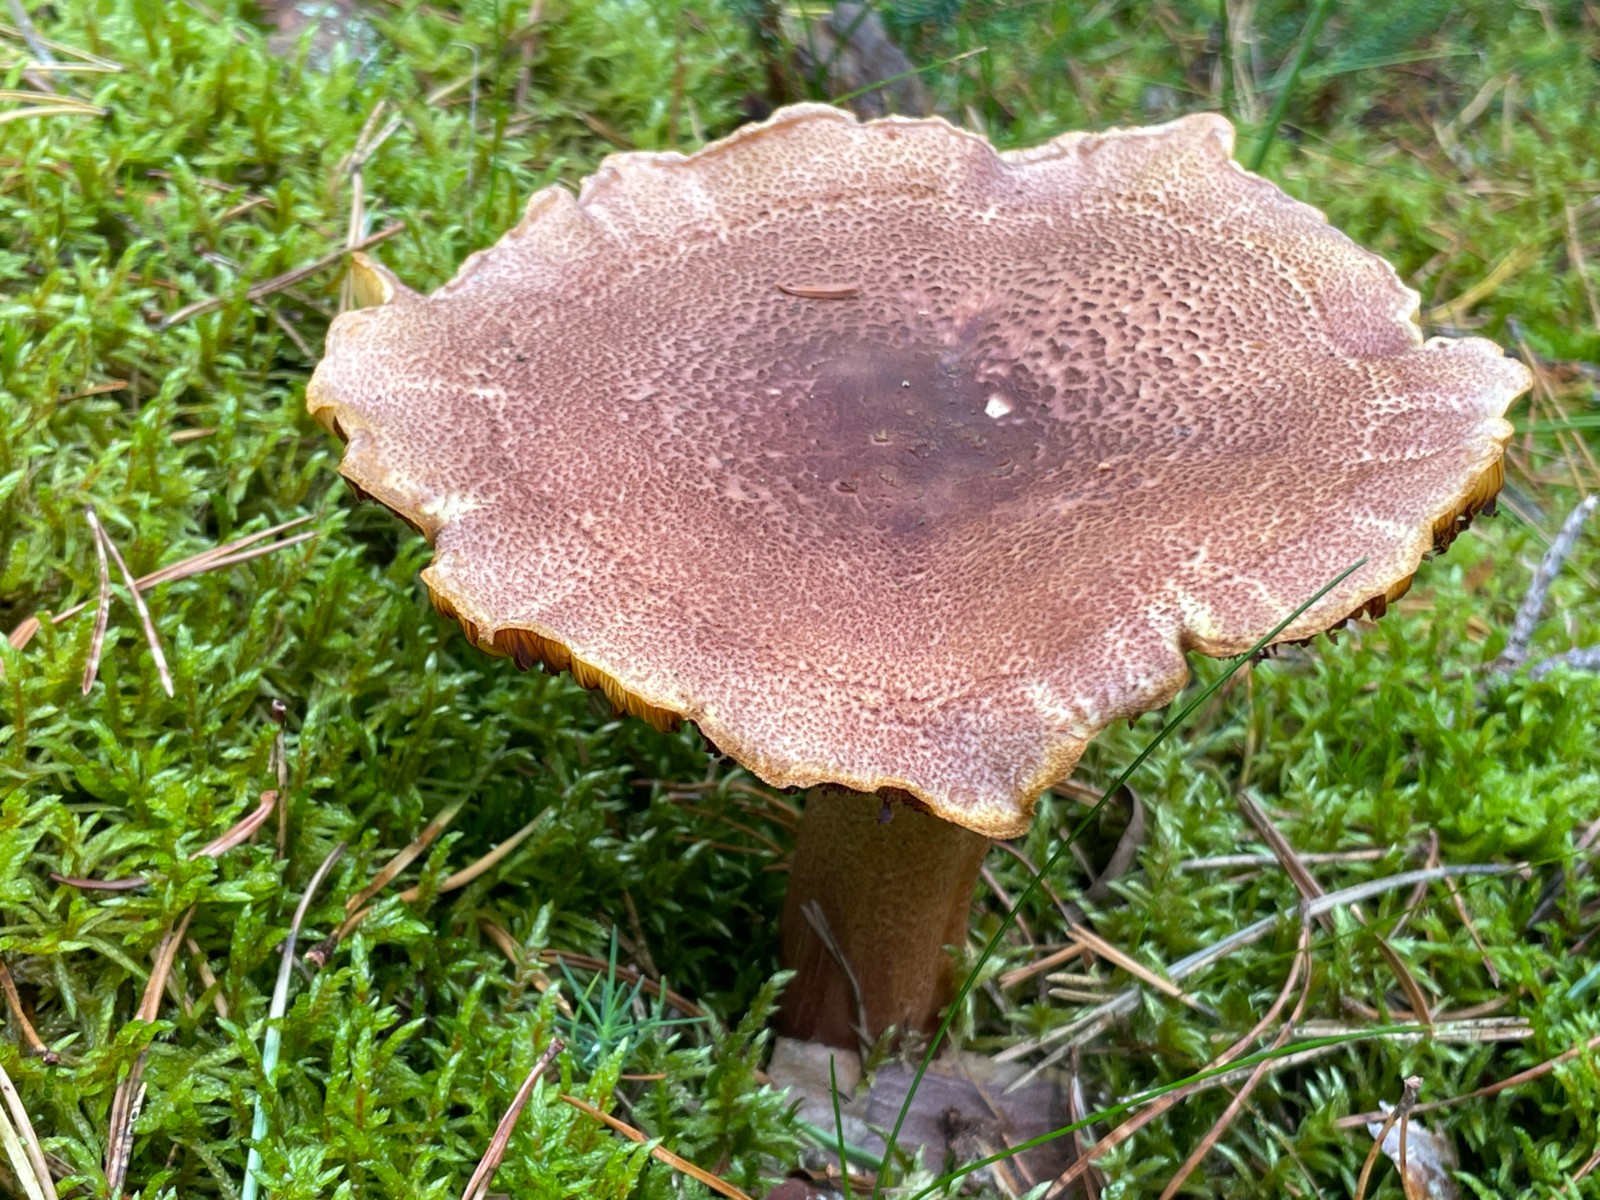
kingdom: Fungi
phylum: Basidiomycota
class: Agaricomycetes
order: Agaricales
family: Tricholomataceae
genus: Tricholomopsis
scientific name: Tricholomopsis rutilans
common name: purpur-væbnerhat
